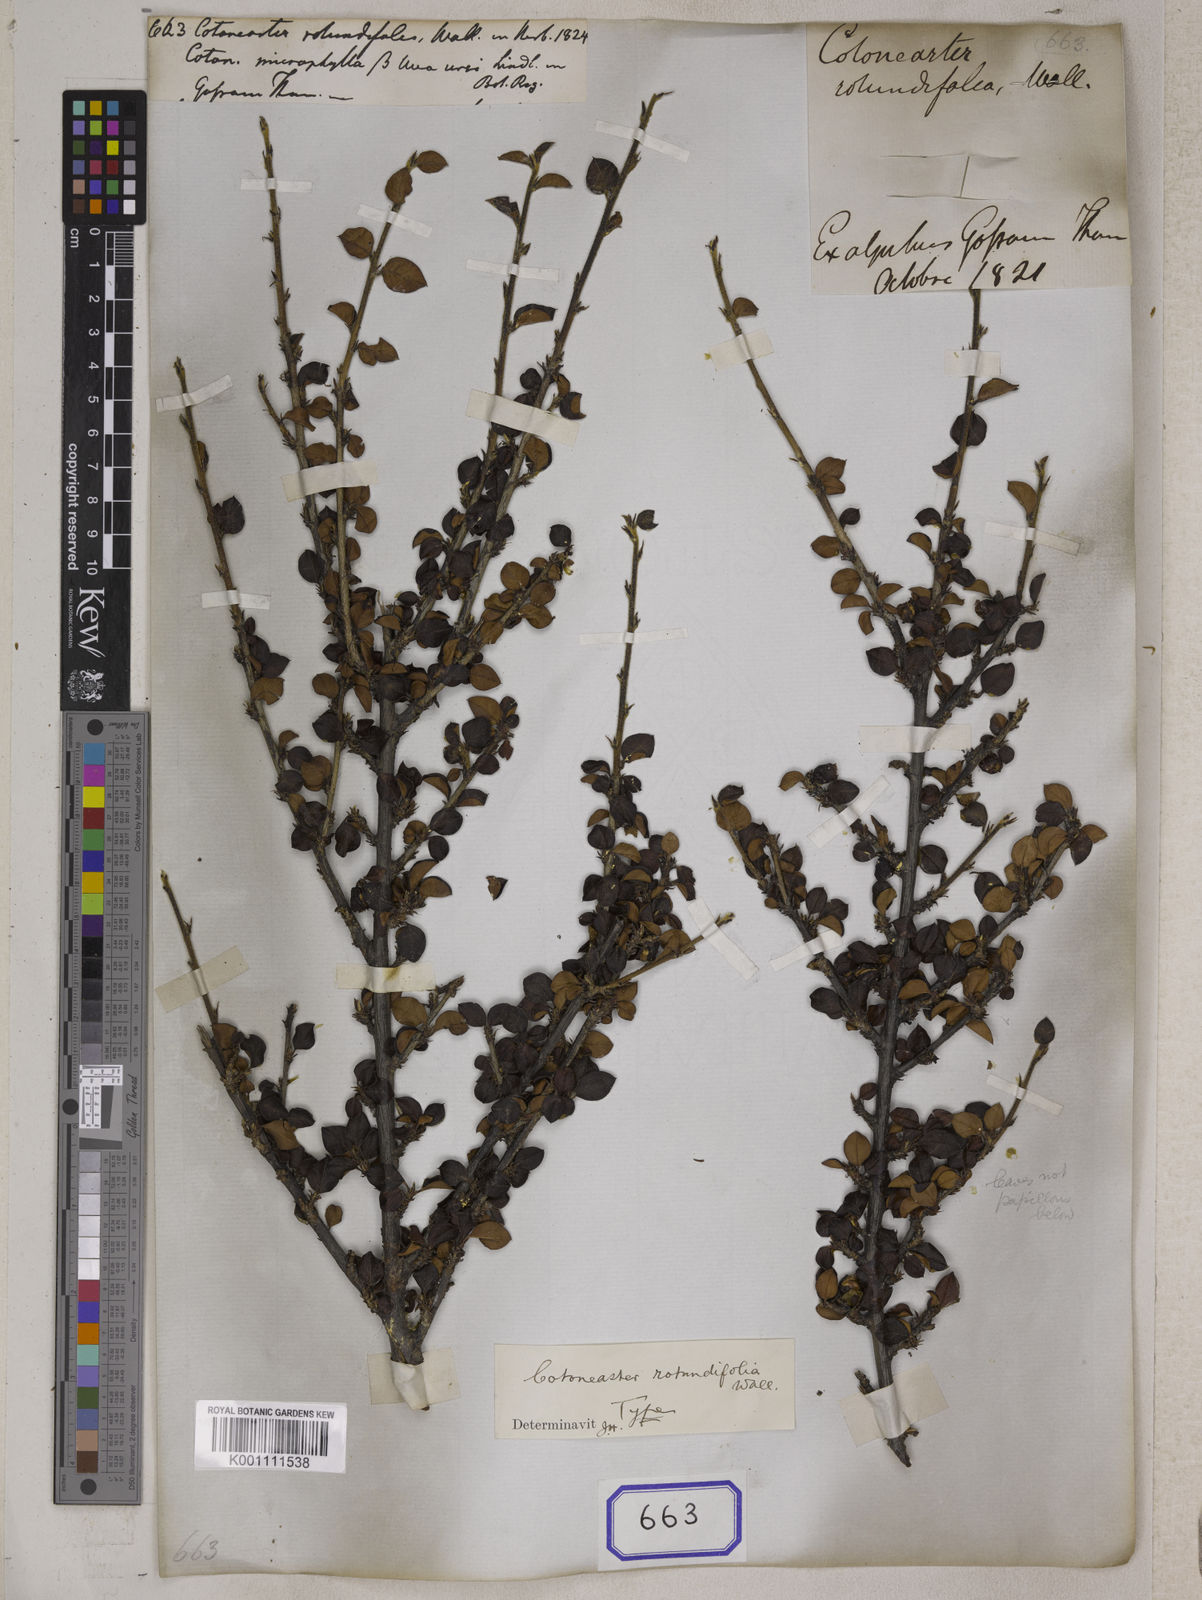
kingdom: Plantae
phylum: Tracheophyta
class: Magnoliopsida
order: Rosales
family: Rosaceae
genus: Cotoneaster
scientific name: Cotoneaster
